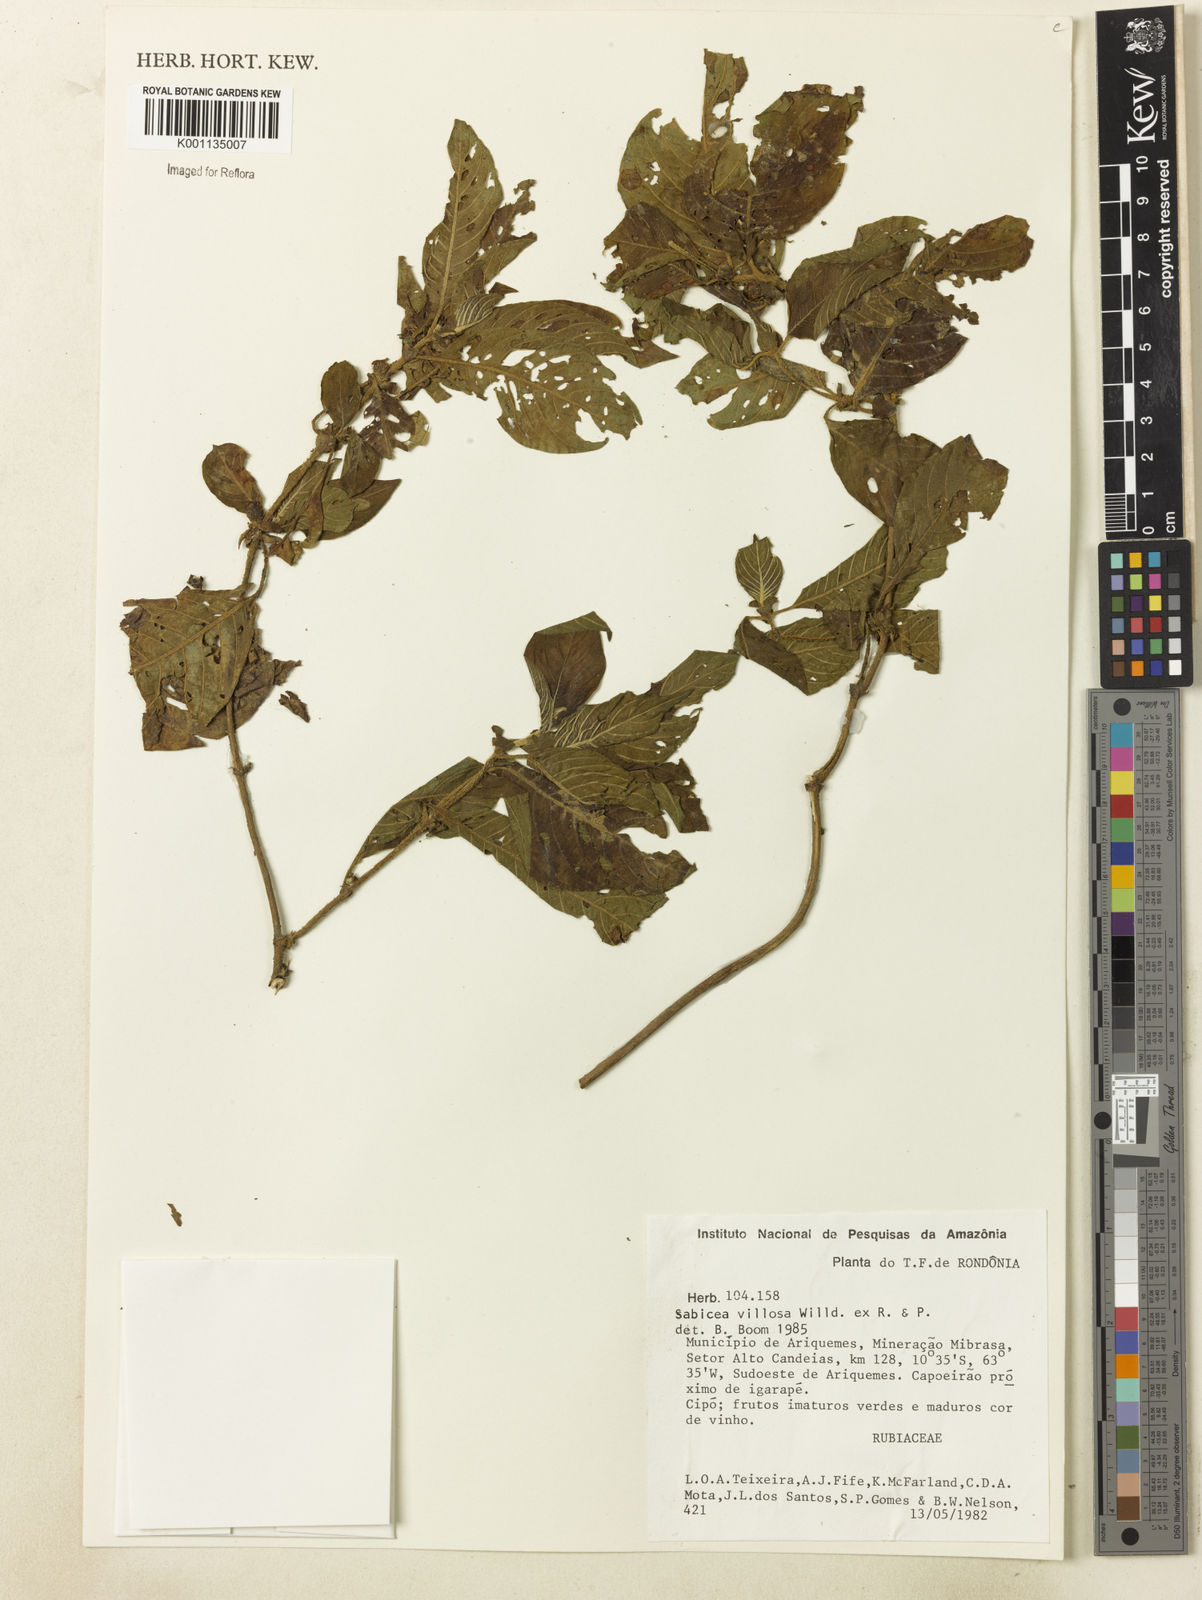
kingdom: Plantae
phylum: Tracheophyta
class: Magnoliopsida
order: Gentianales
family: Rubiaceae
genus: Sabicea
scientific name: Sabicea villosa
